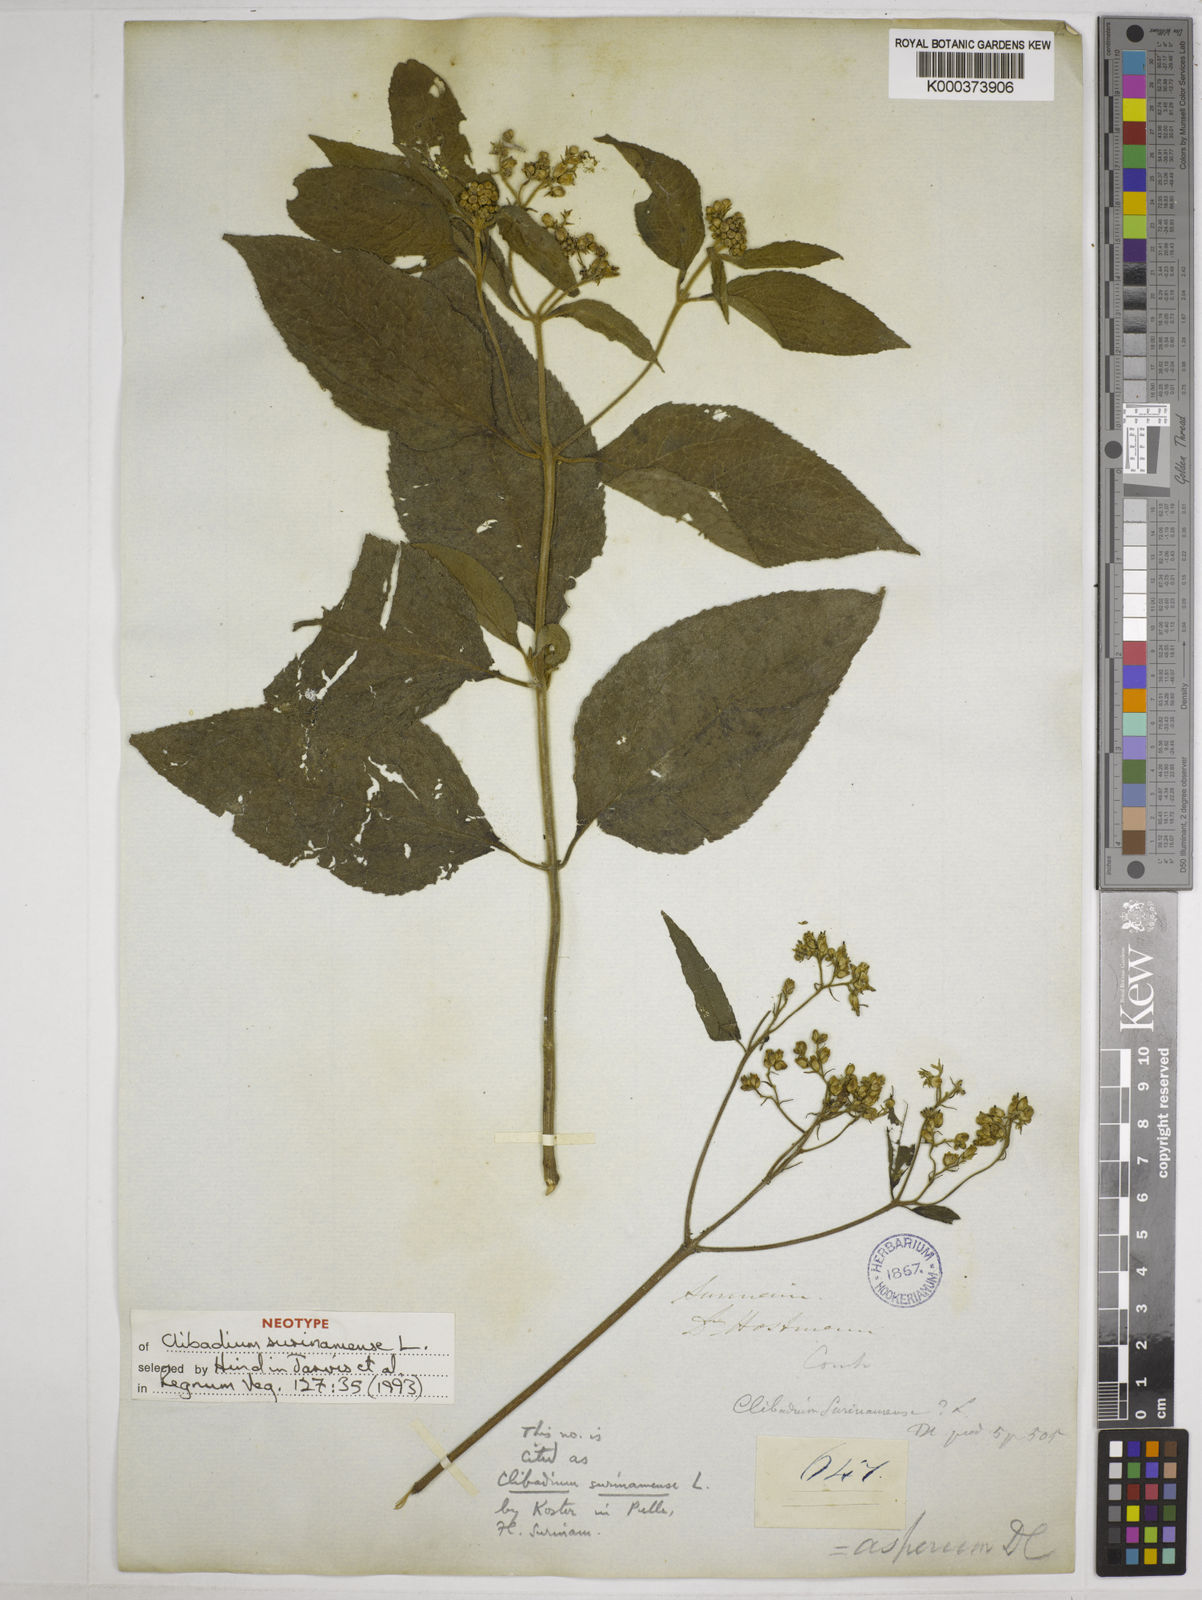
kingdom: Plantae
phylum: Tracheophyta
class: Magnoliopsida
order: Asterales
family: Asteraceae
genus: Clibadium
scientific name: Clibadium surinamense
